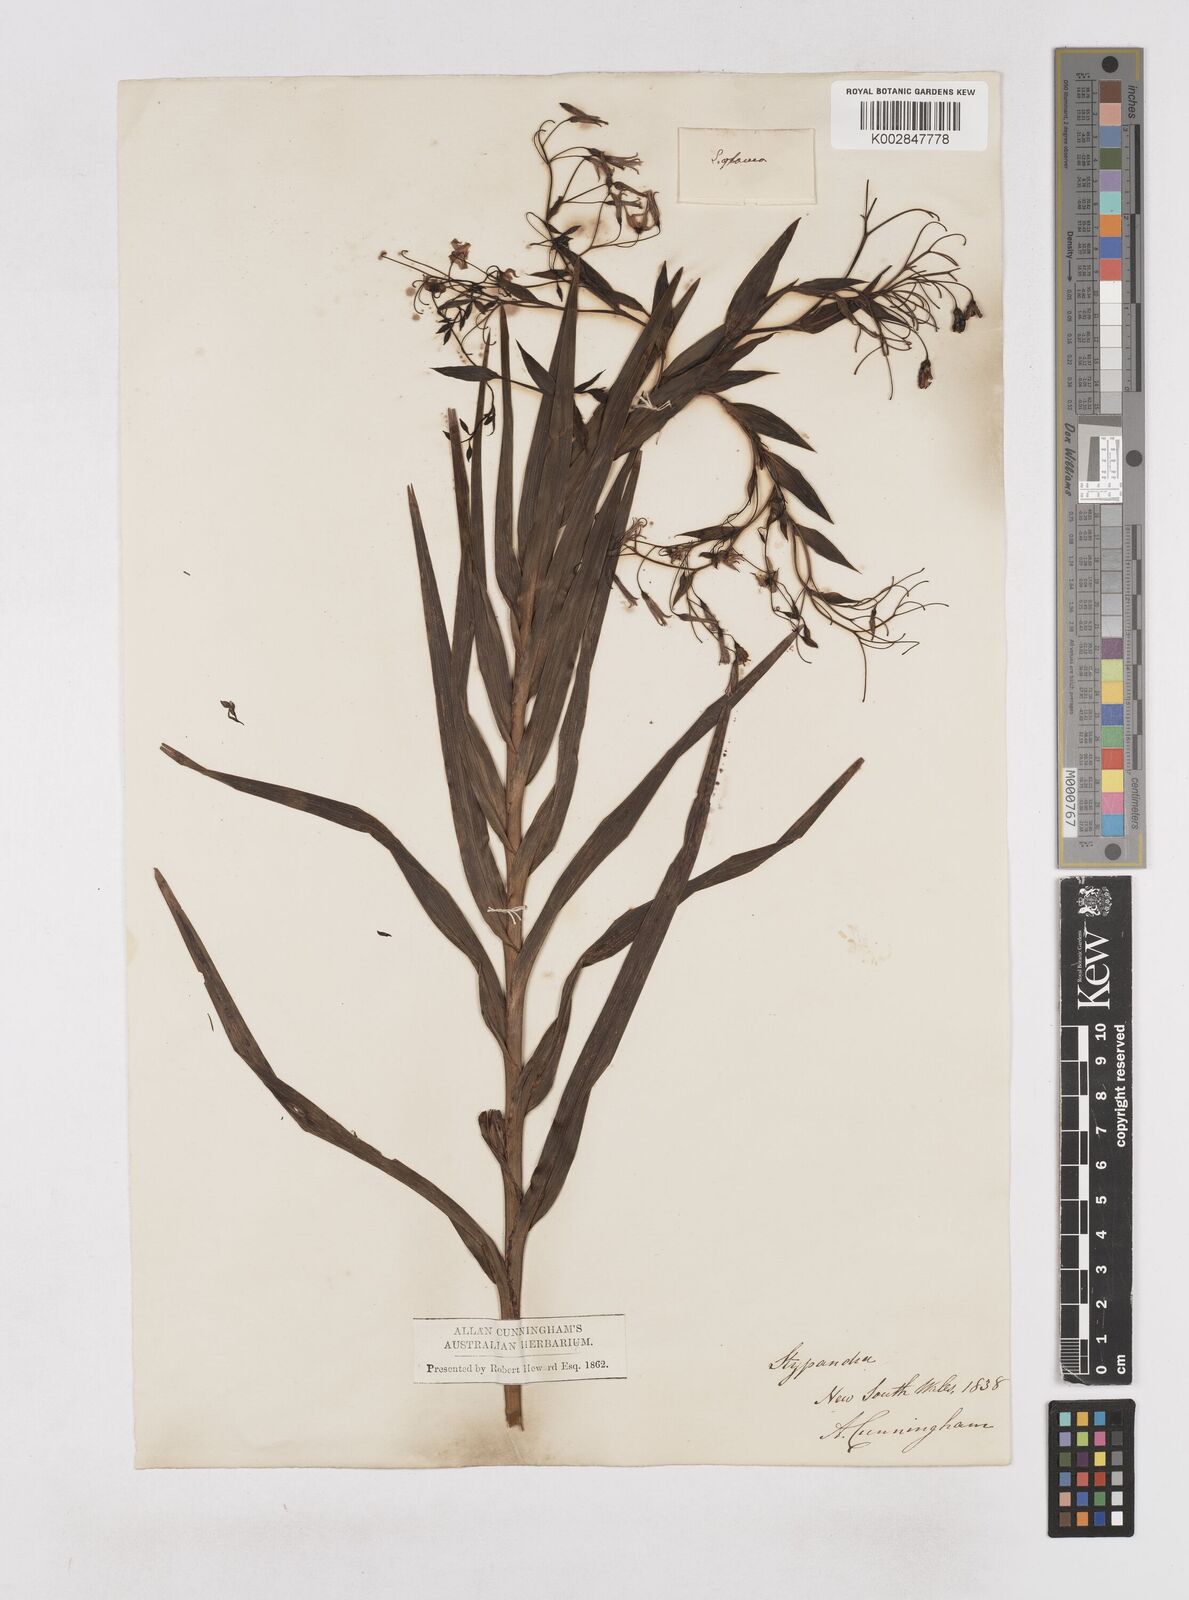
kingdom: Plantae
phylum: Tracheophyta
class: Liliopsida
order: Asparagales
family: Asphodelaceae
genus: Stypandra
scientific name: Stypandra glauca
